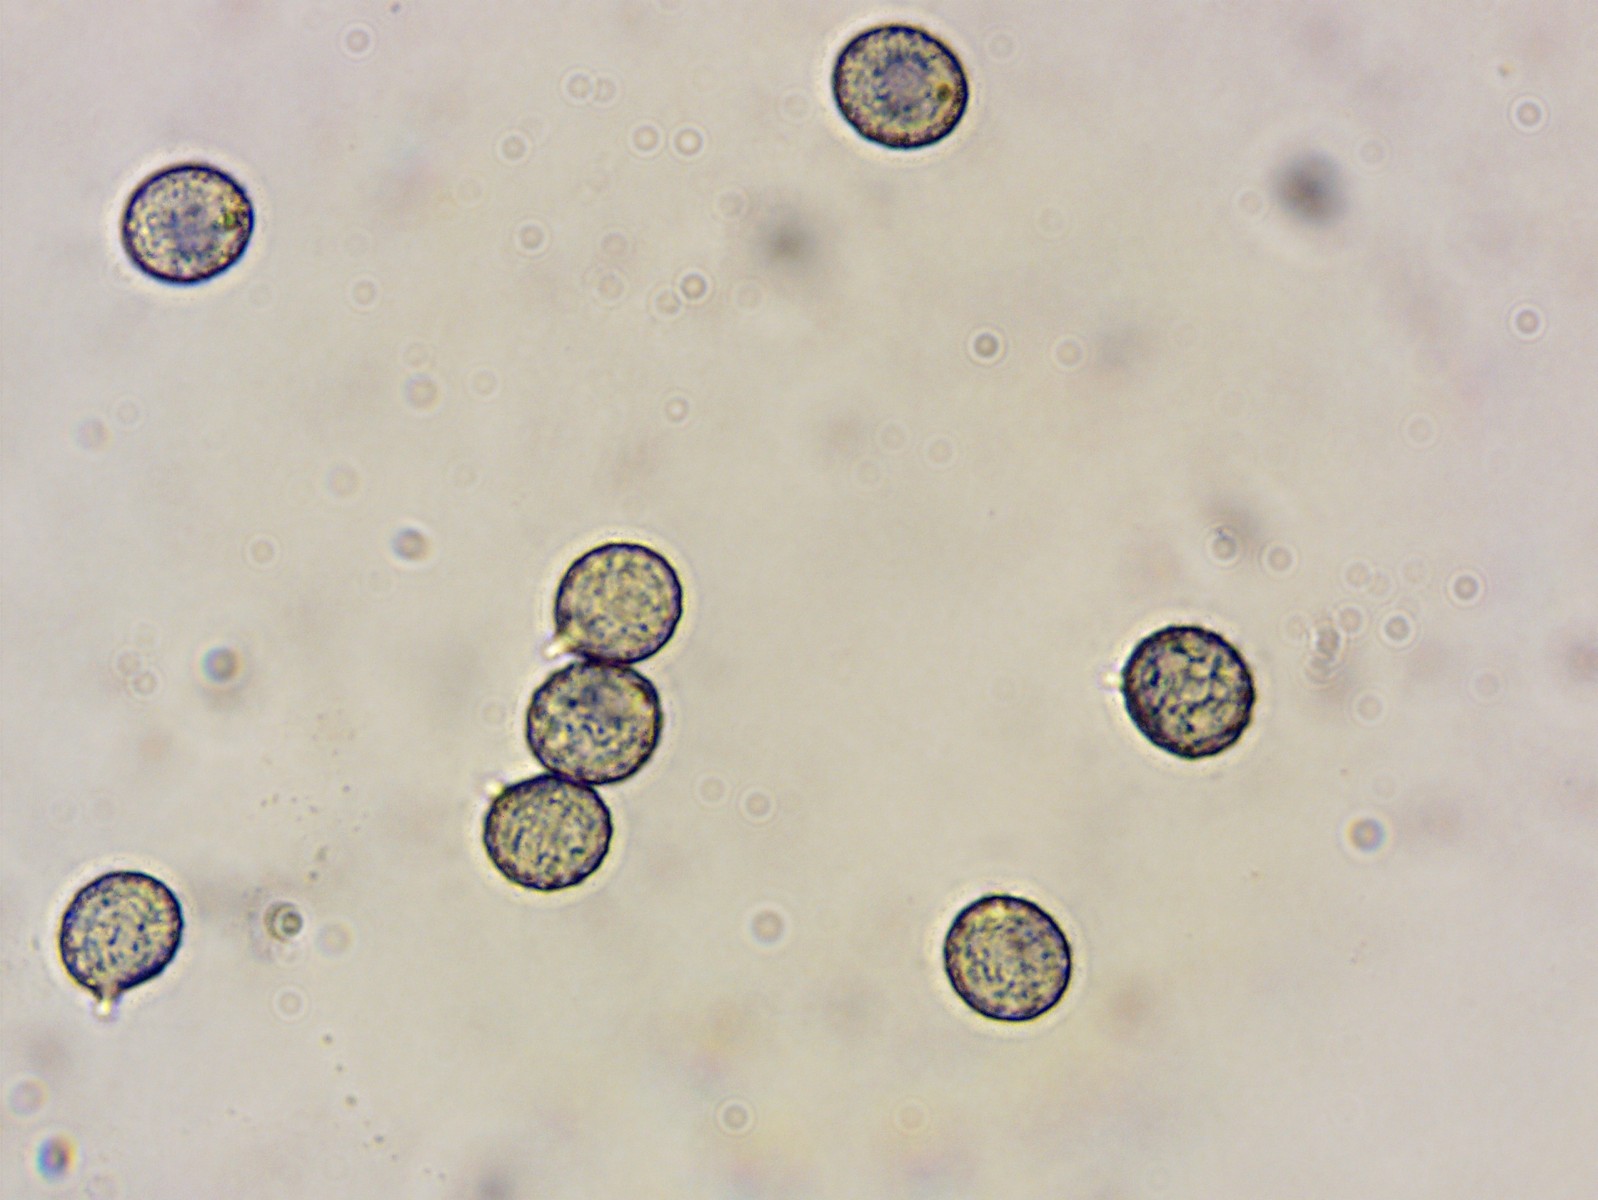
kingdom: Fungi
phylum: Basidiomycota
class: Agaricomycetes
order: Russulales
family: Russulaceae
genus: Russula
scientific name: Russula melliolens
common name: honning-skørhat
